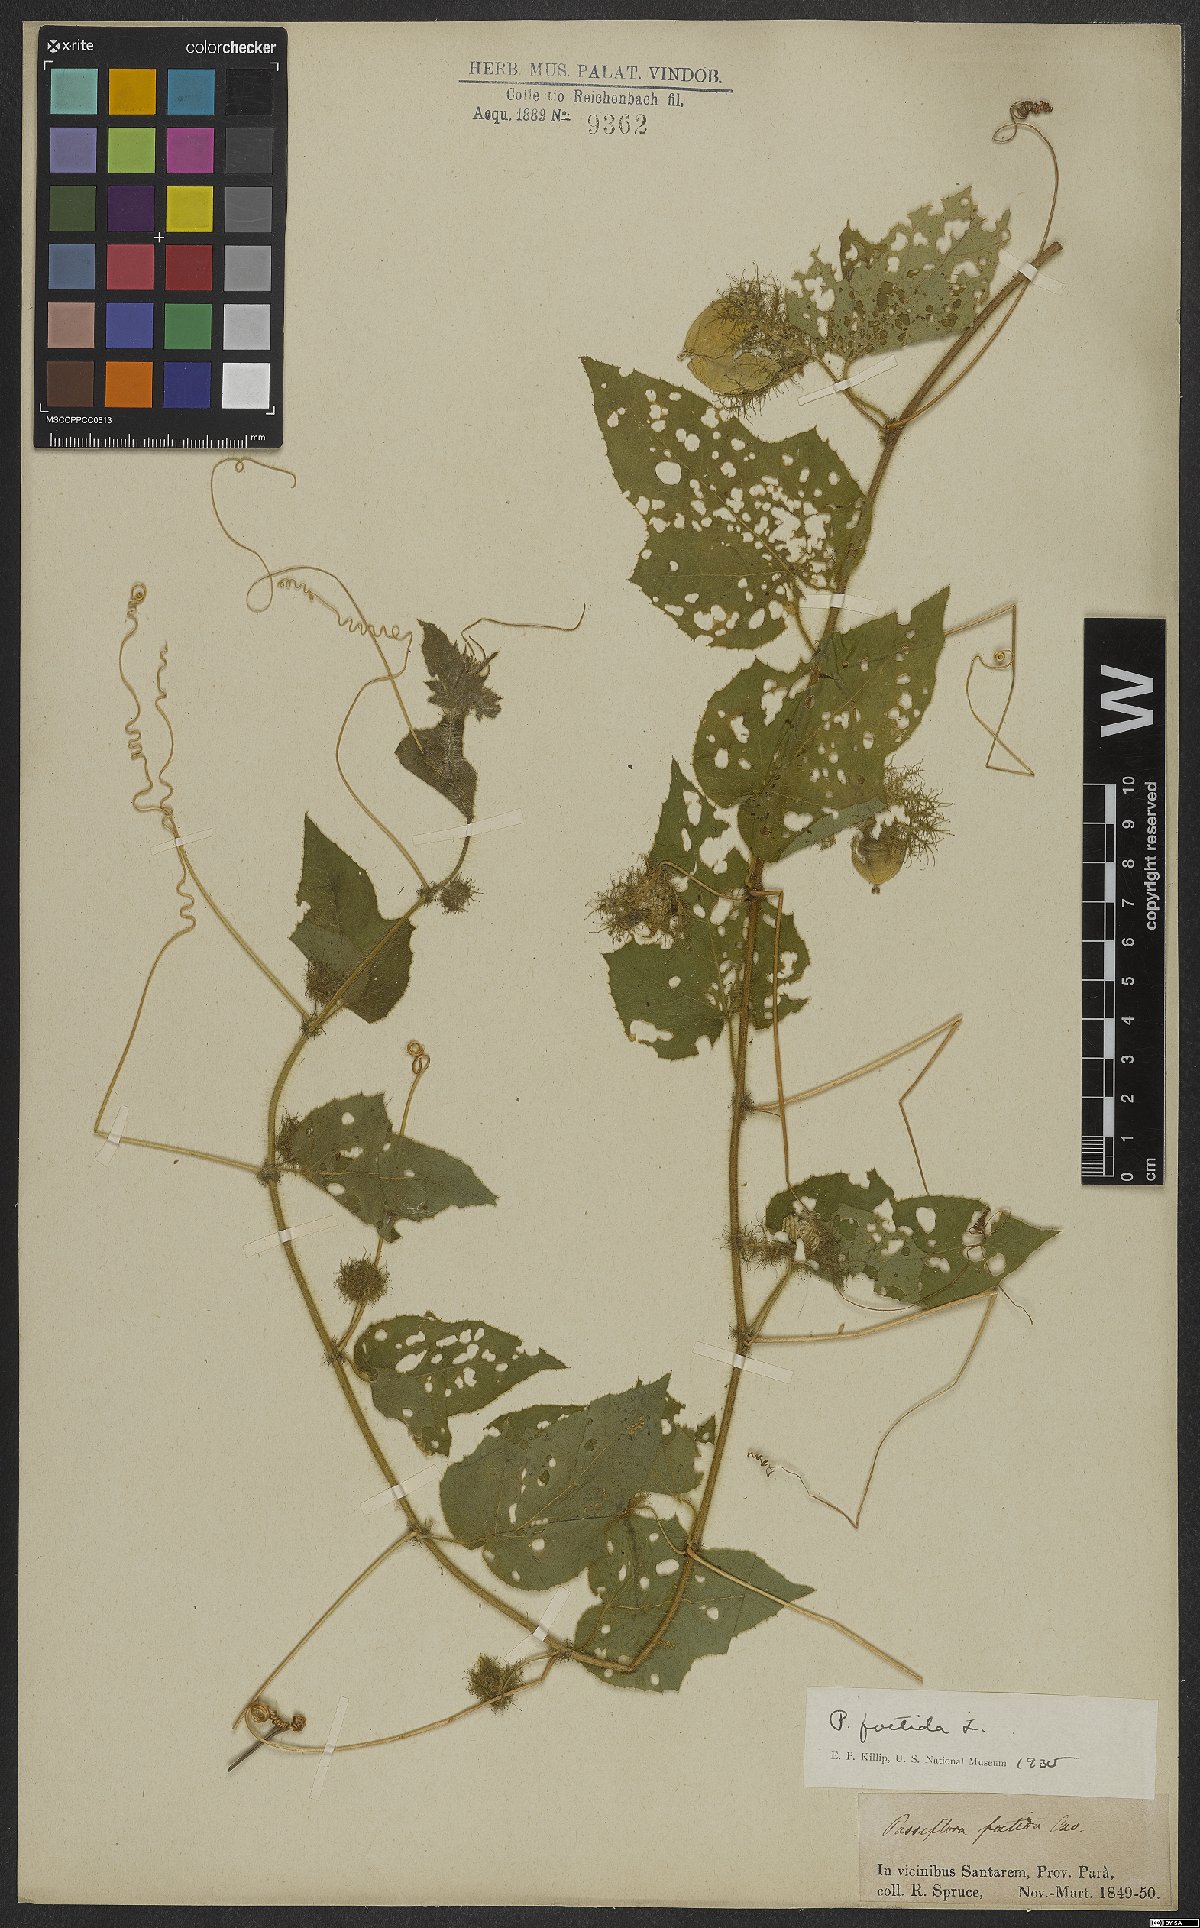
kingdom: Plantae
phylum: Tracheophyta
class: Magnoliopsida
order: Malpighiales
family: Passifloraceae
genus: Passiflora
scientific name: Passiflora foetida
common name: Fetid passionflower
